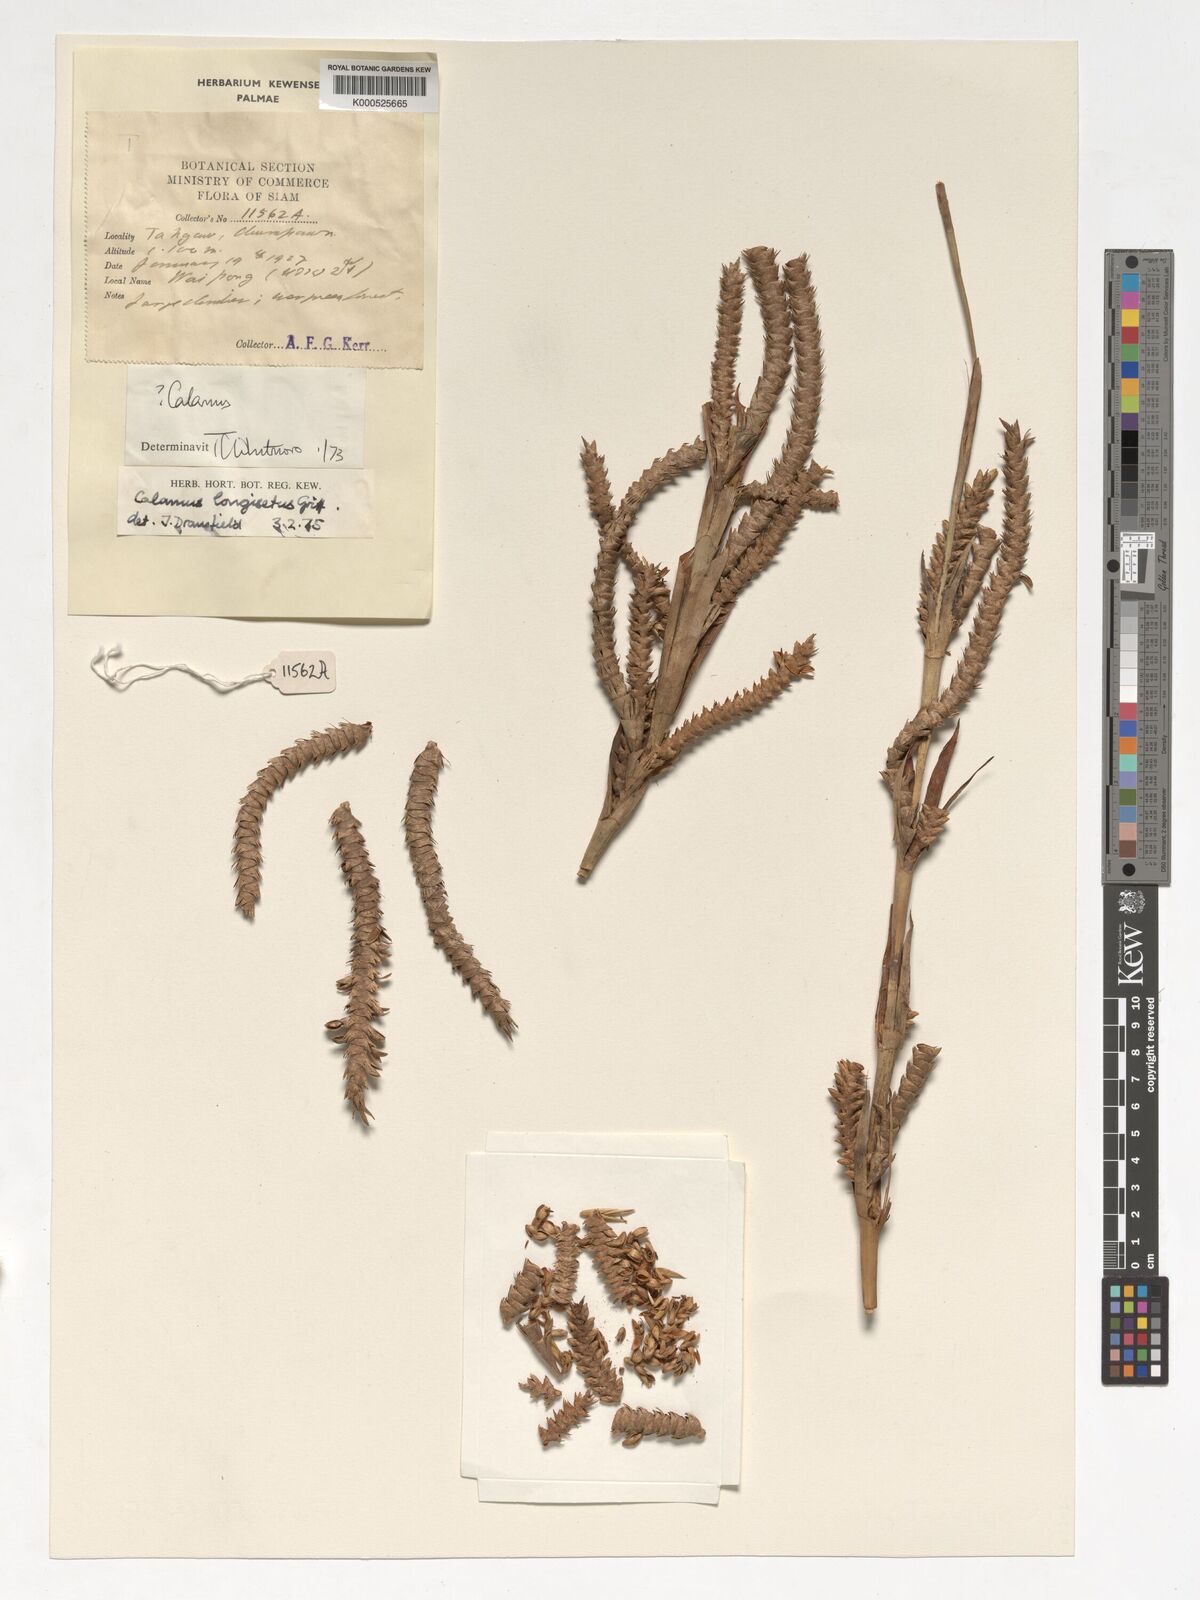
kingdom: Plantae
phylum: Tracheophyta
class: Liliopsida
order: Arecales
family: Arecaceae
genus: Calamus
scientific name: Calamus longisetus
